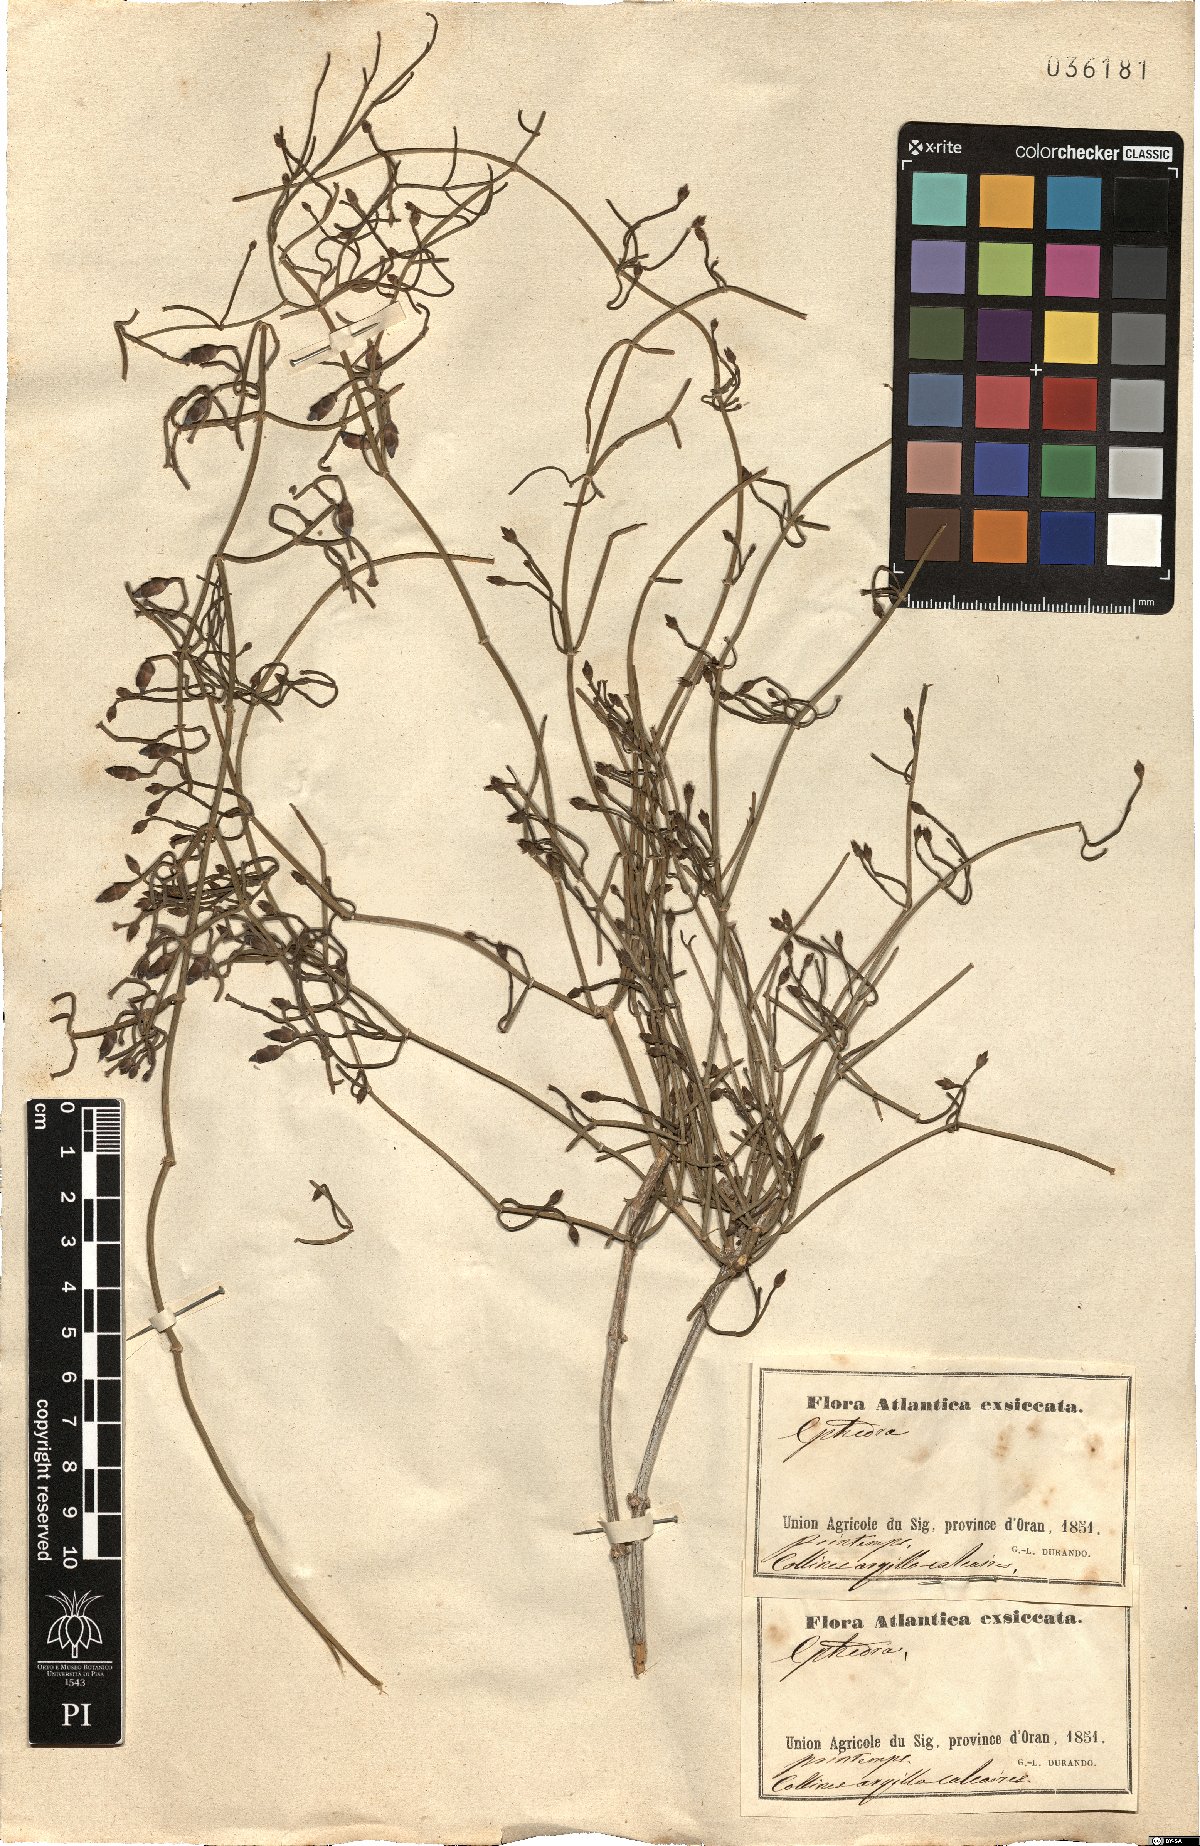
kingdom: Plantae
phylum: Tracheophyta
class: Gnetopsida
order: Ephedrales
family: Ephedraceae
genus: Ephedra
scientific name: Ephedra
